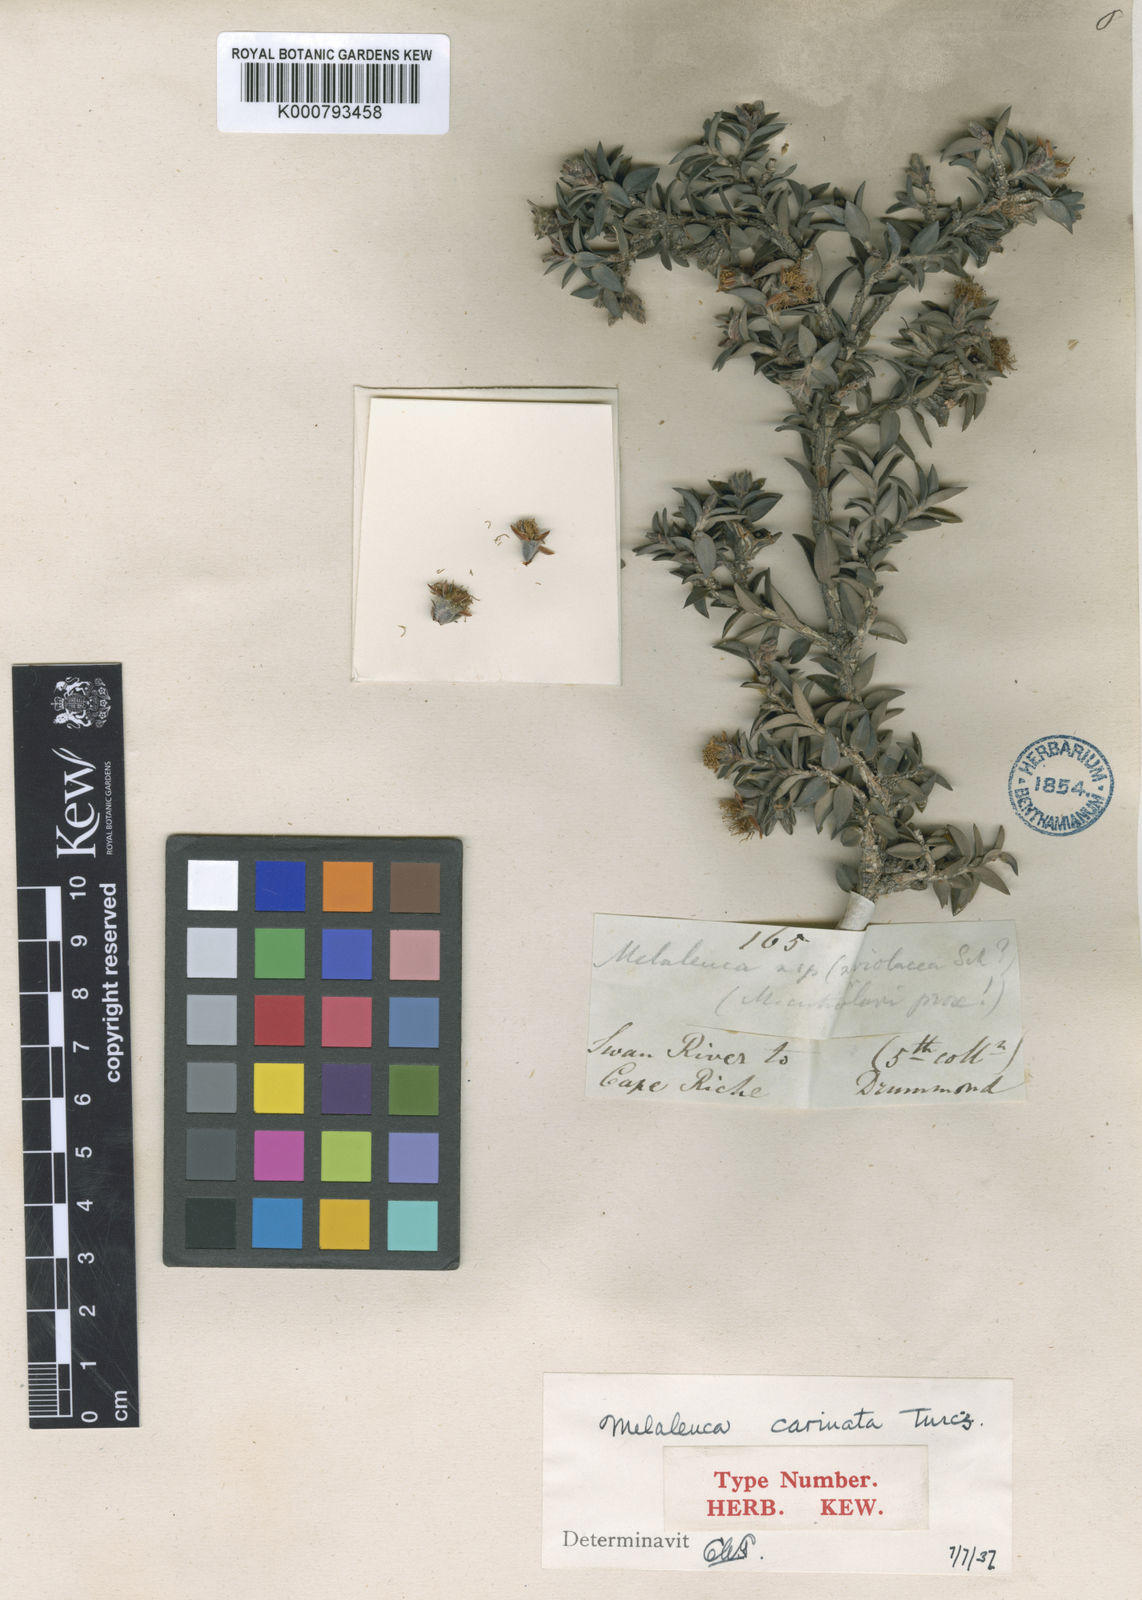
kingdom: Plantae
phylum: Tracheophyta
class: Magnoliopsida
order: Myrtales
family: Myrtaceae
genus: Melaleuca
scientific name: Melaleuca calycina
